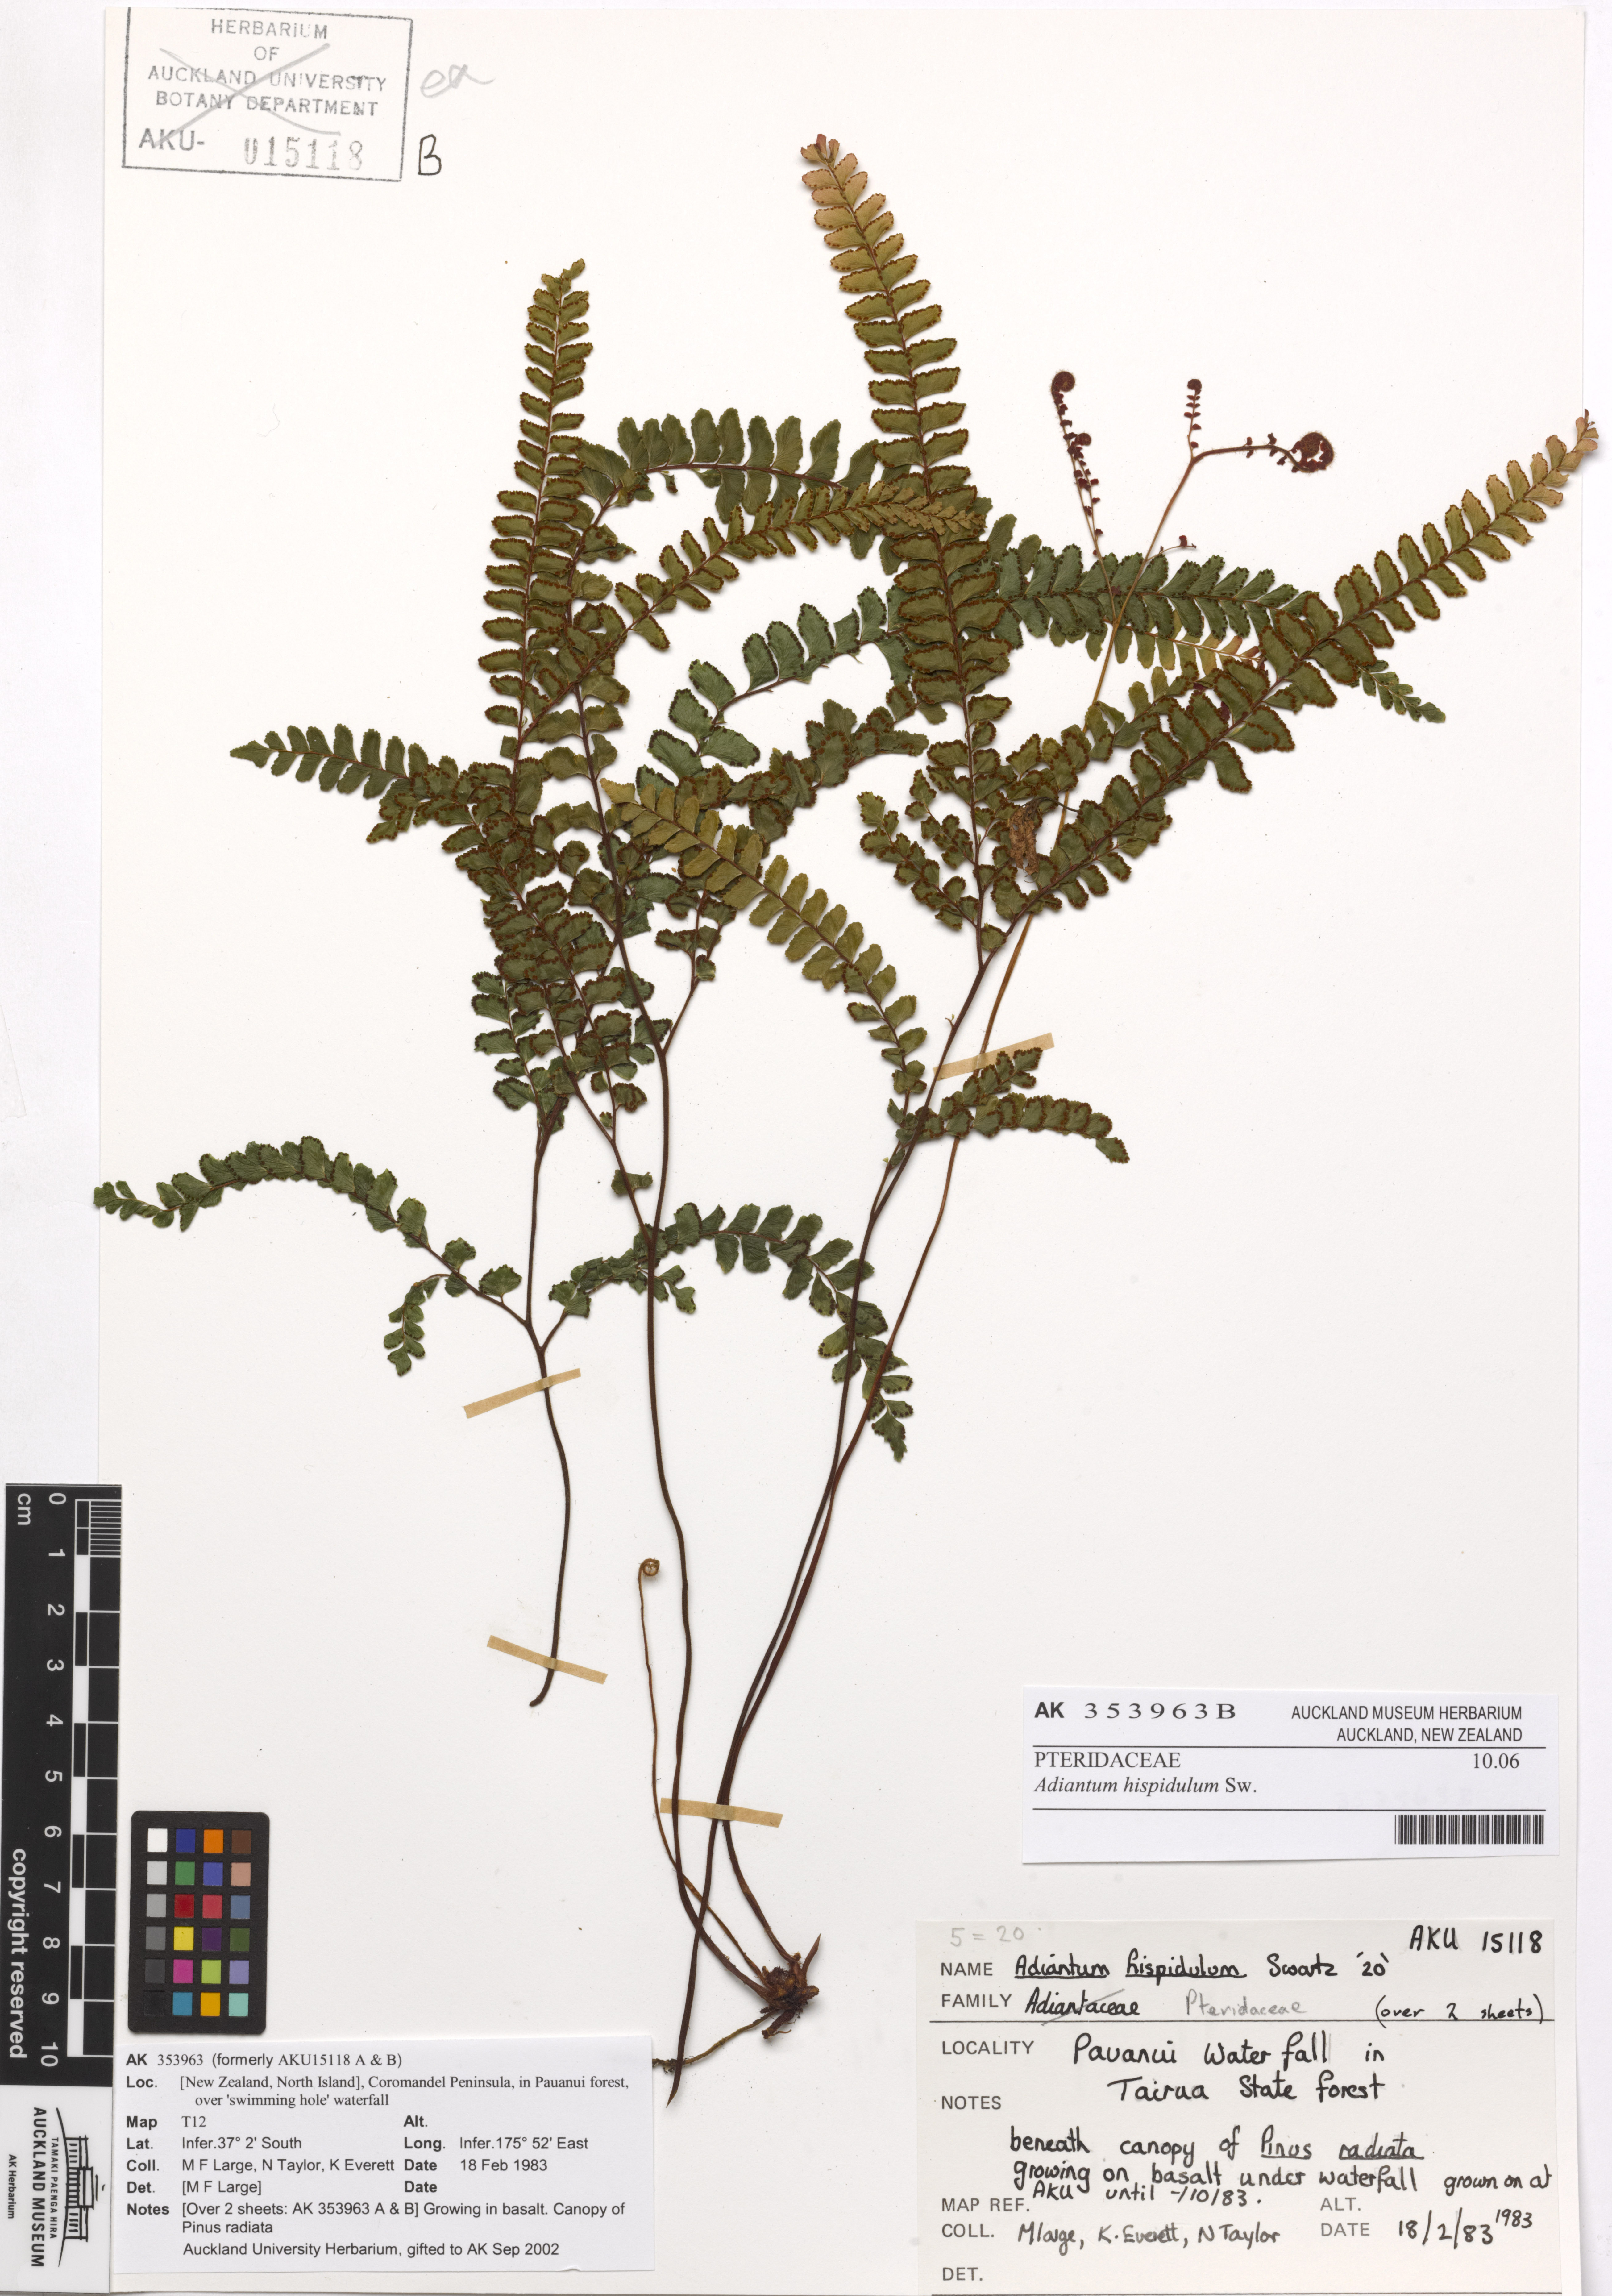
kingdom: Plantae
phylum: Tracheophyta
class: Polypodiopsida
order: Polypodiales
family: Pteridaceae
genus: Adiantum
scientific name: Adiantum hispidulum
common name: Rough maidenhair
